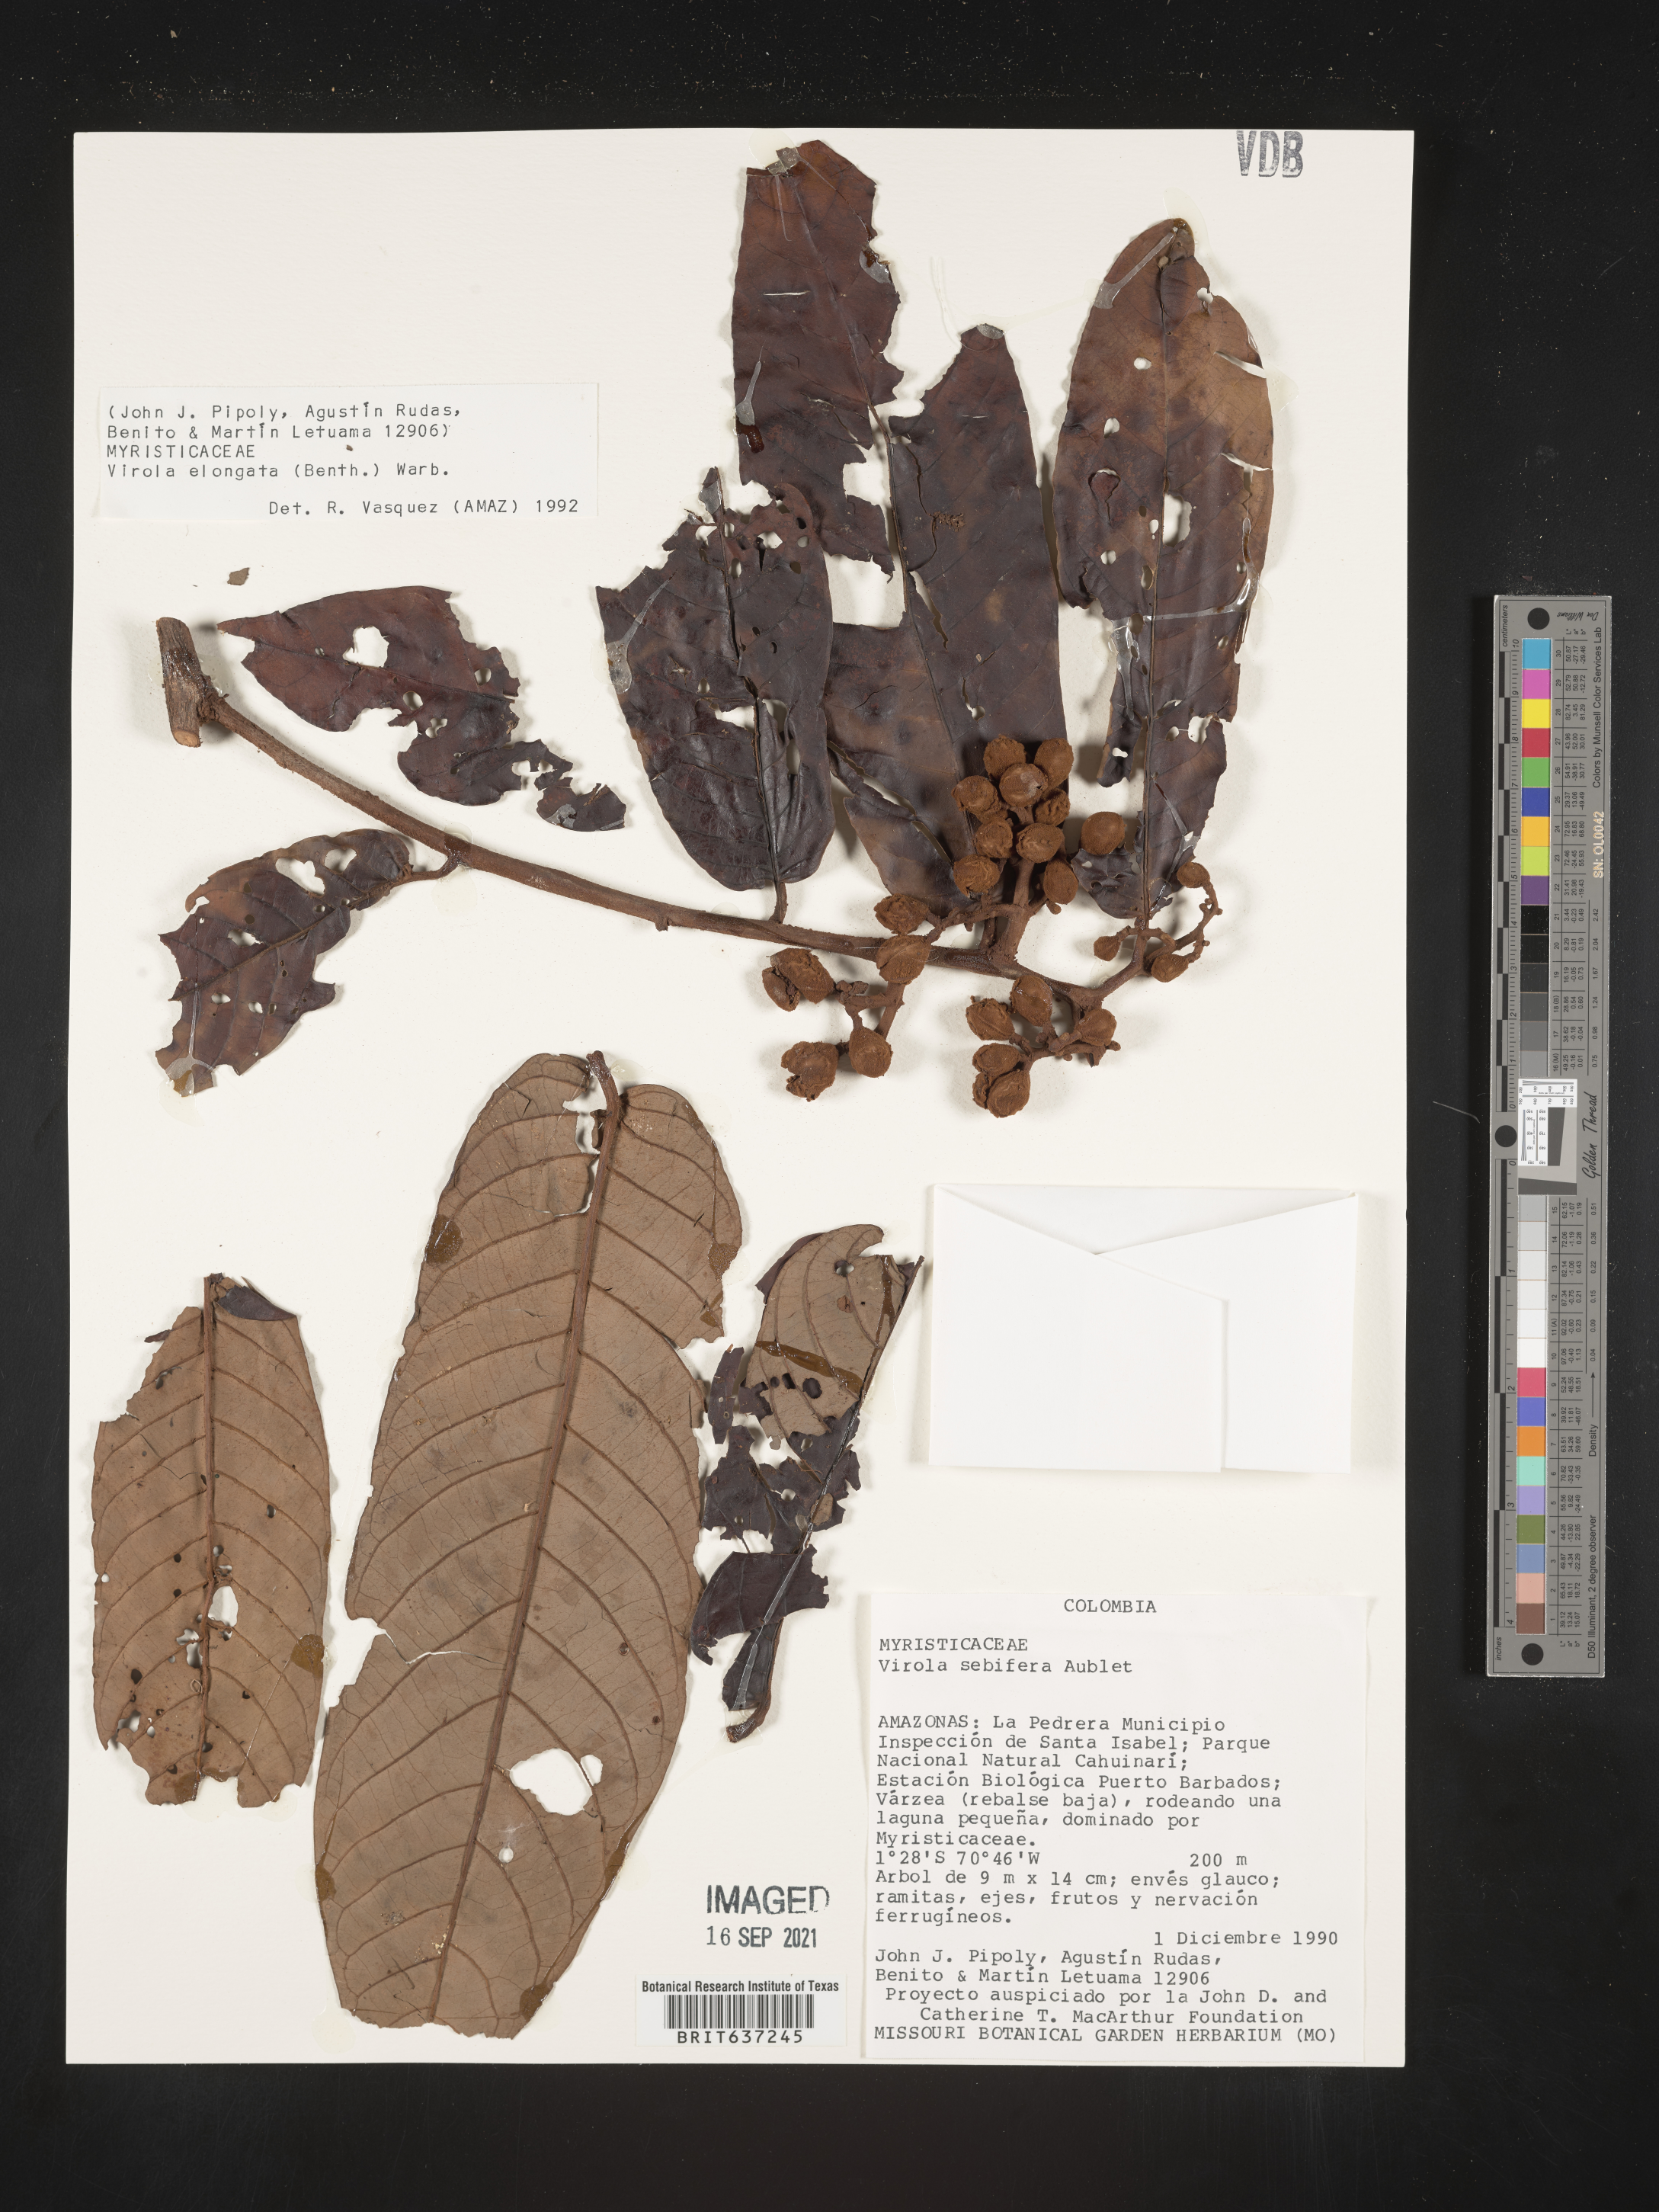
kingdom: Plantae
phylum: Tracheophyta
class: Magnoliopsida
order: Magnoliales
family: Myristicaceae
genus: Virola
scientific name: Virola
